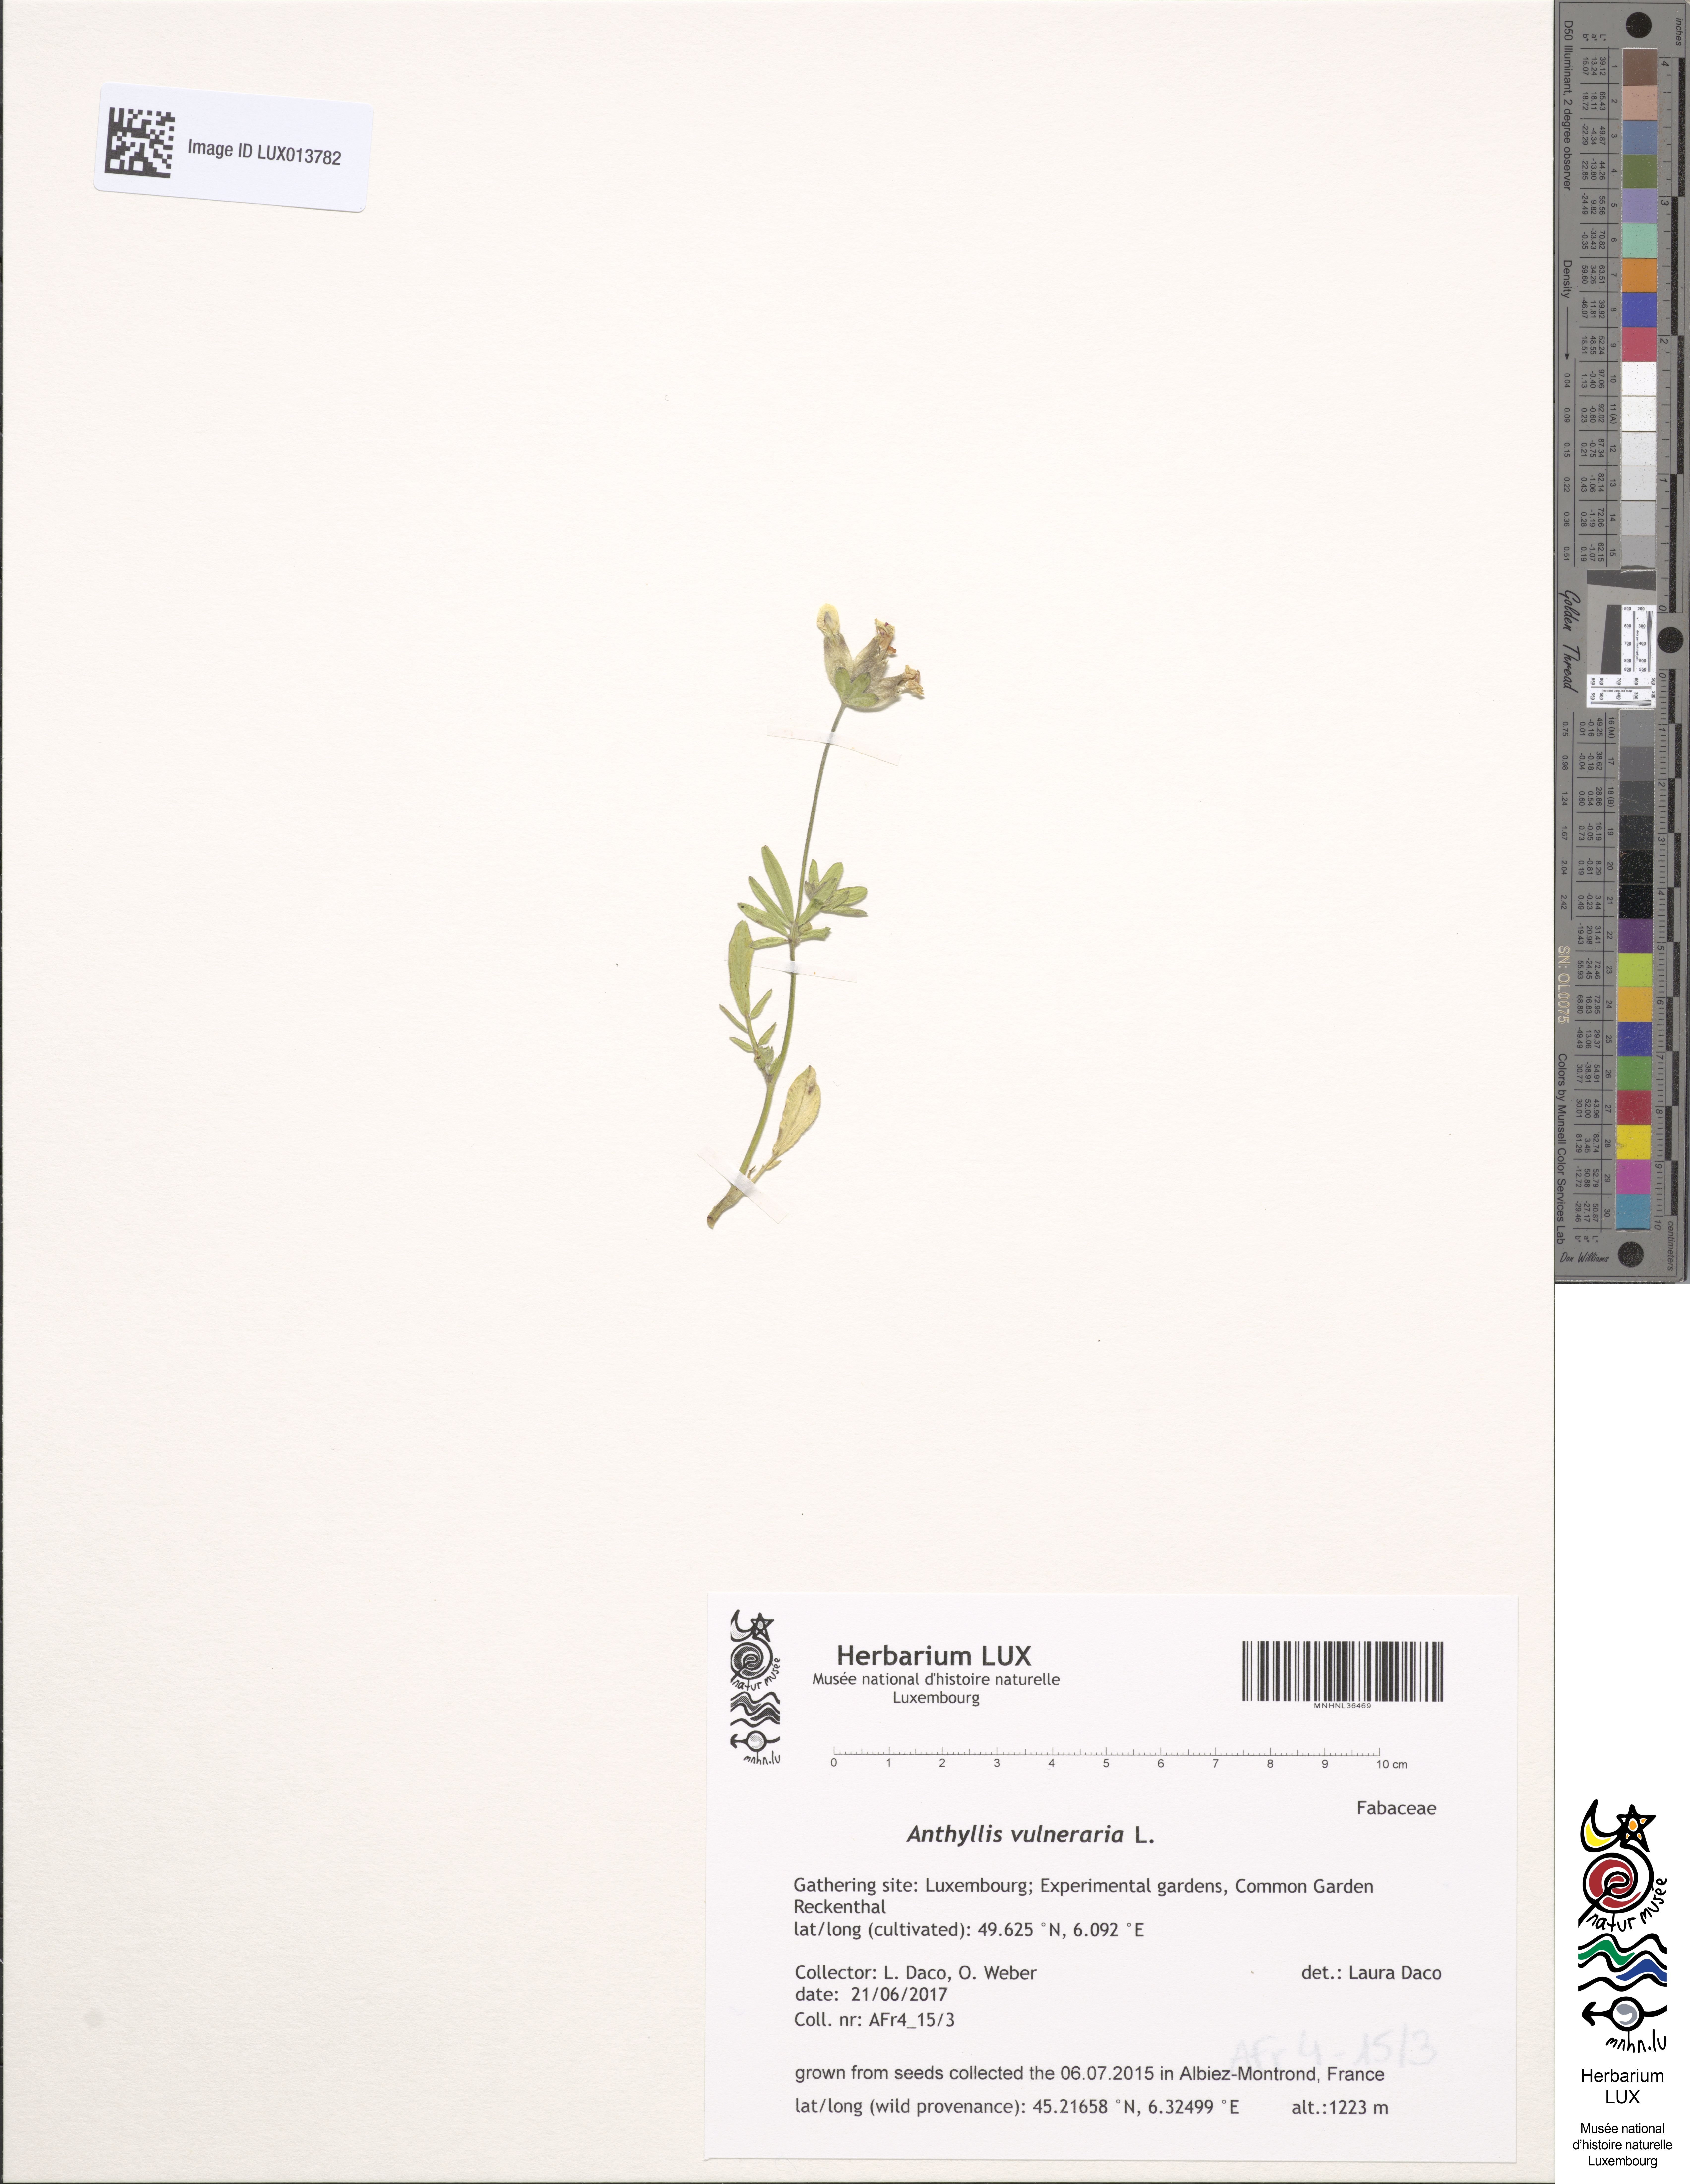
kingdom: Plantae
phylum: Tracheophyta
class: Magnoliopsida
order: Fabales
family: Fabaceae
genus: Anthyllis
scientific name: Anthyllis vulneraria
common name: Kidney vetch
